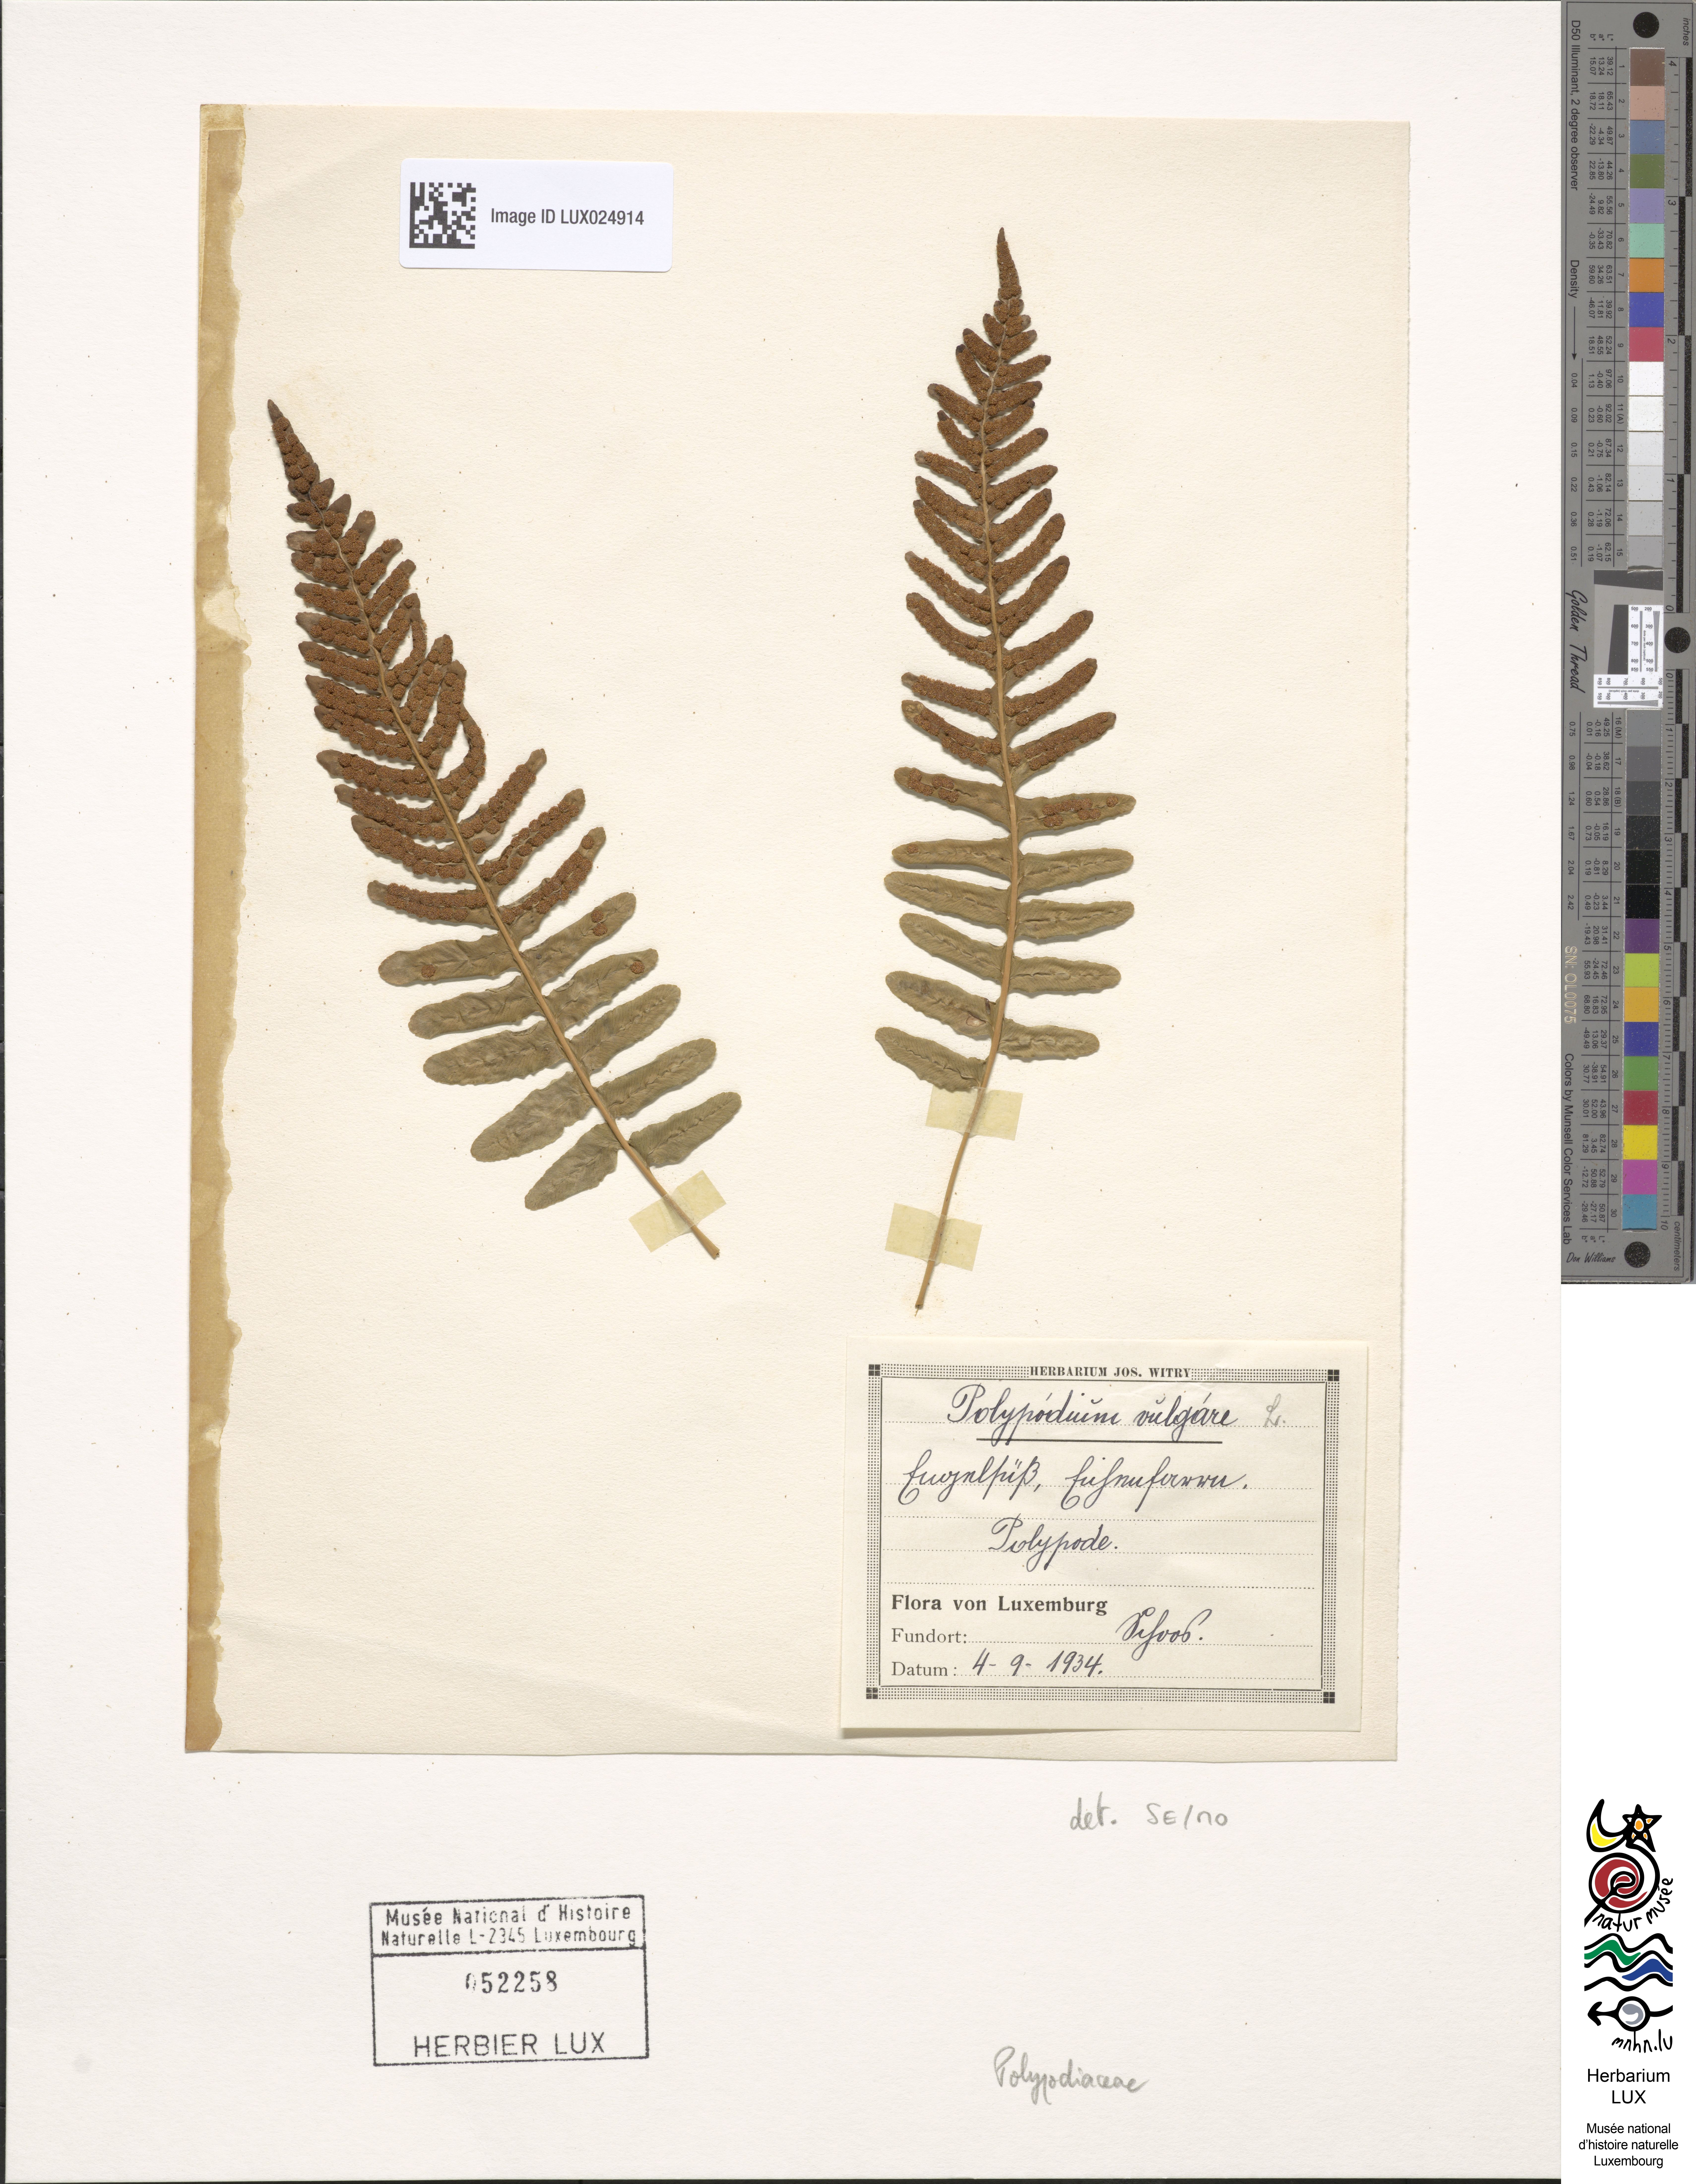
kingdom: Plantae
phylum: Tracheophyta
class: Polypodiopsida
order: Polypodiales
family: Polypodiaceae
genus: Polypodium
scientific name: Polypodium vulgare
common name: Common polypody
